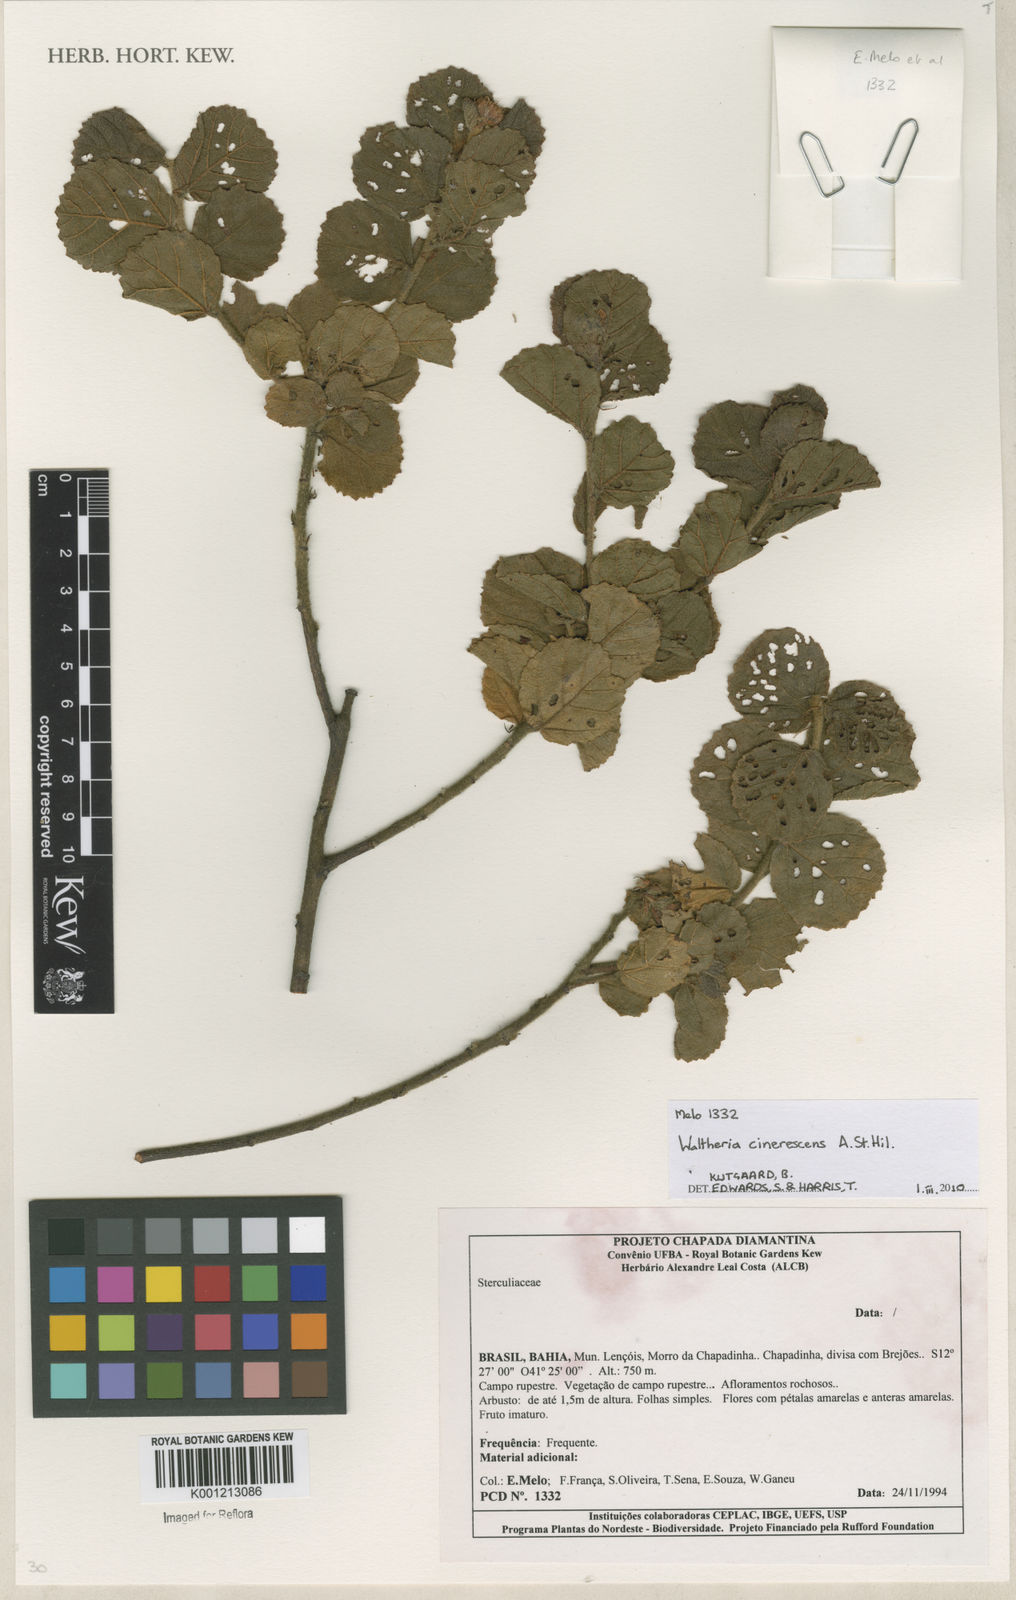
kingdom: Plantae
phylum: Tracheophyta
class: Magnoliopsida
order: Malvales
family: Malvaceae
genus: Waltheria
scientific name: Waltheria cinerescens
